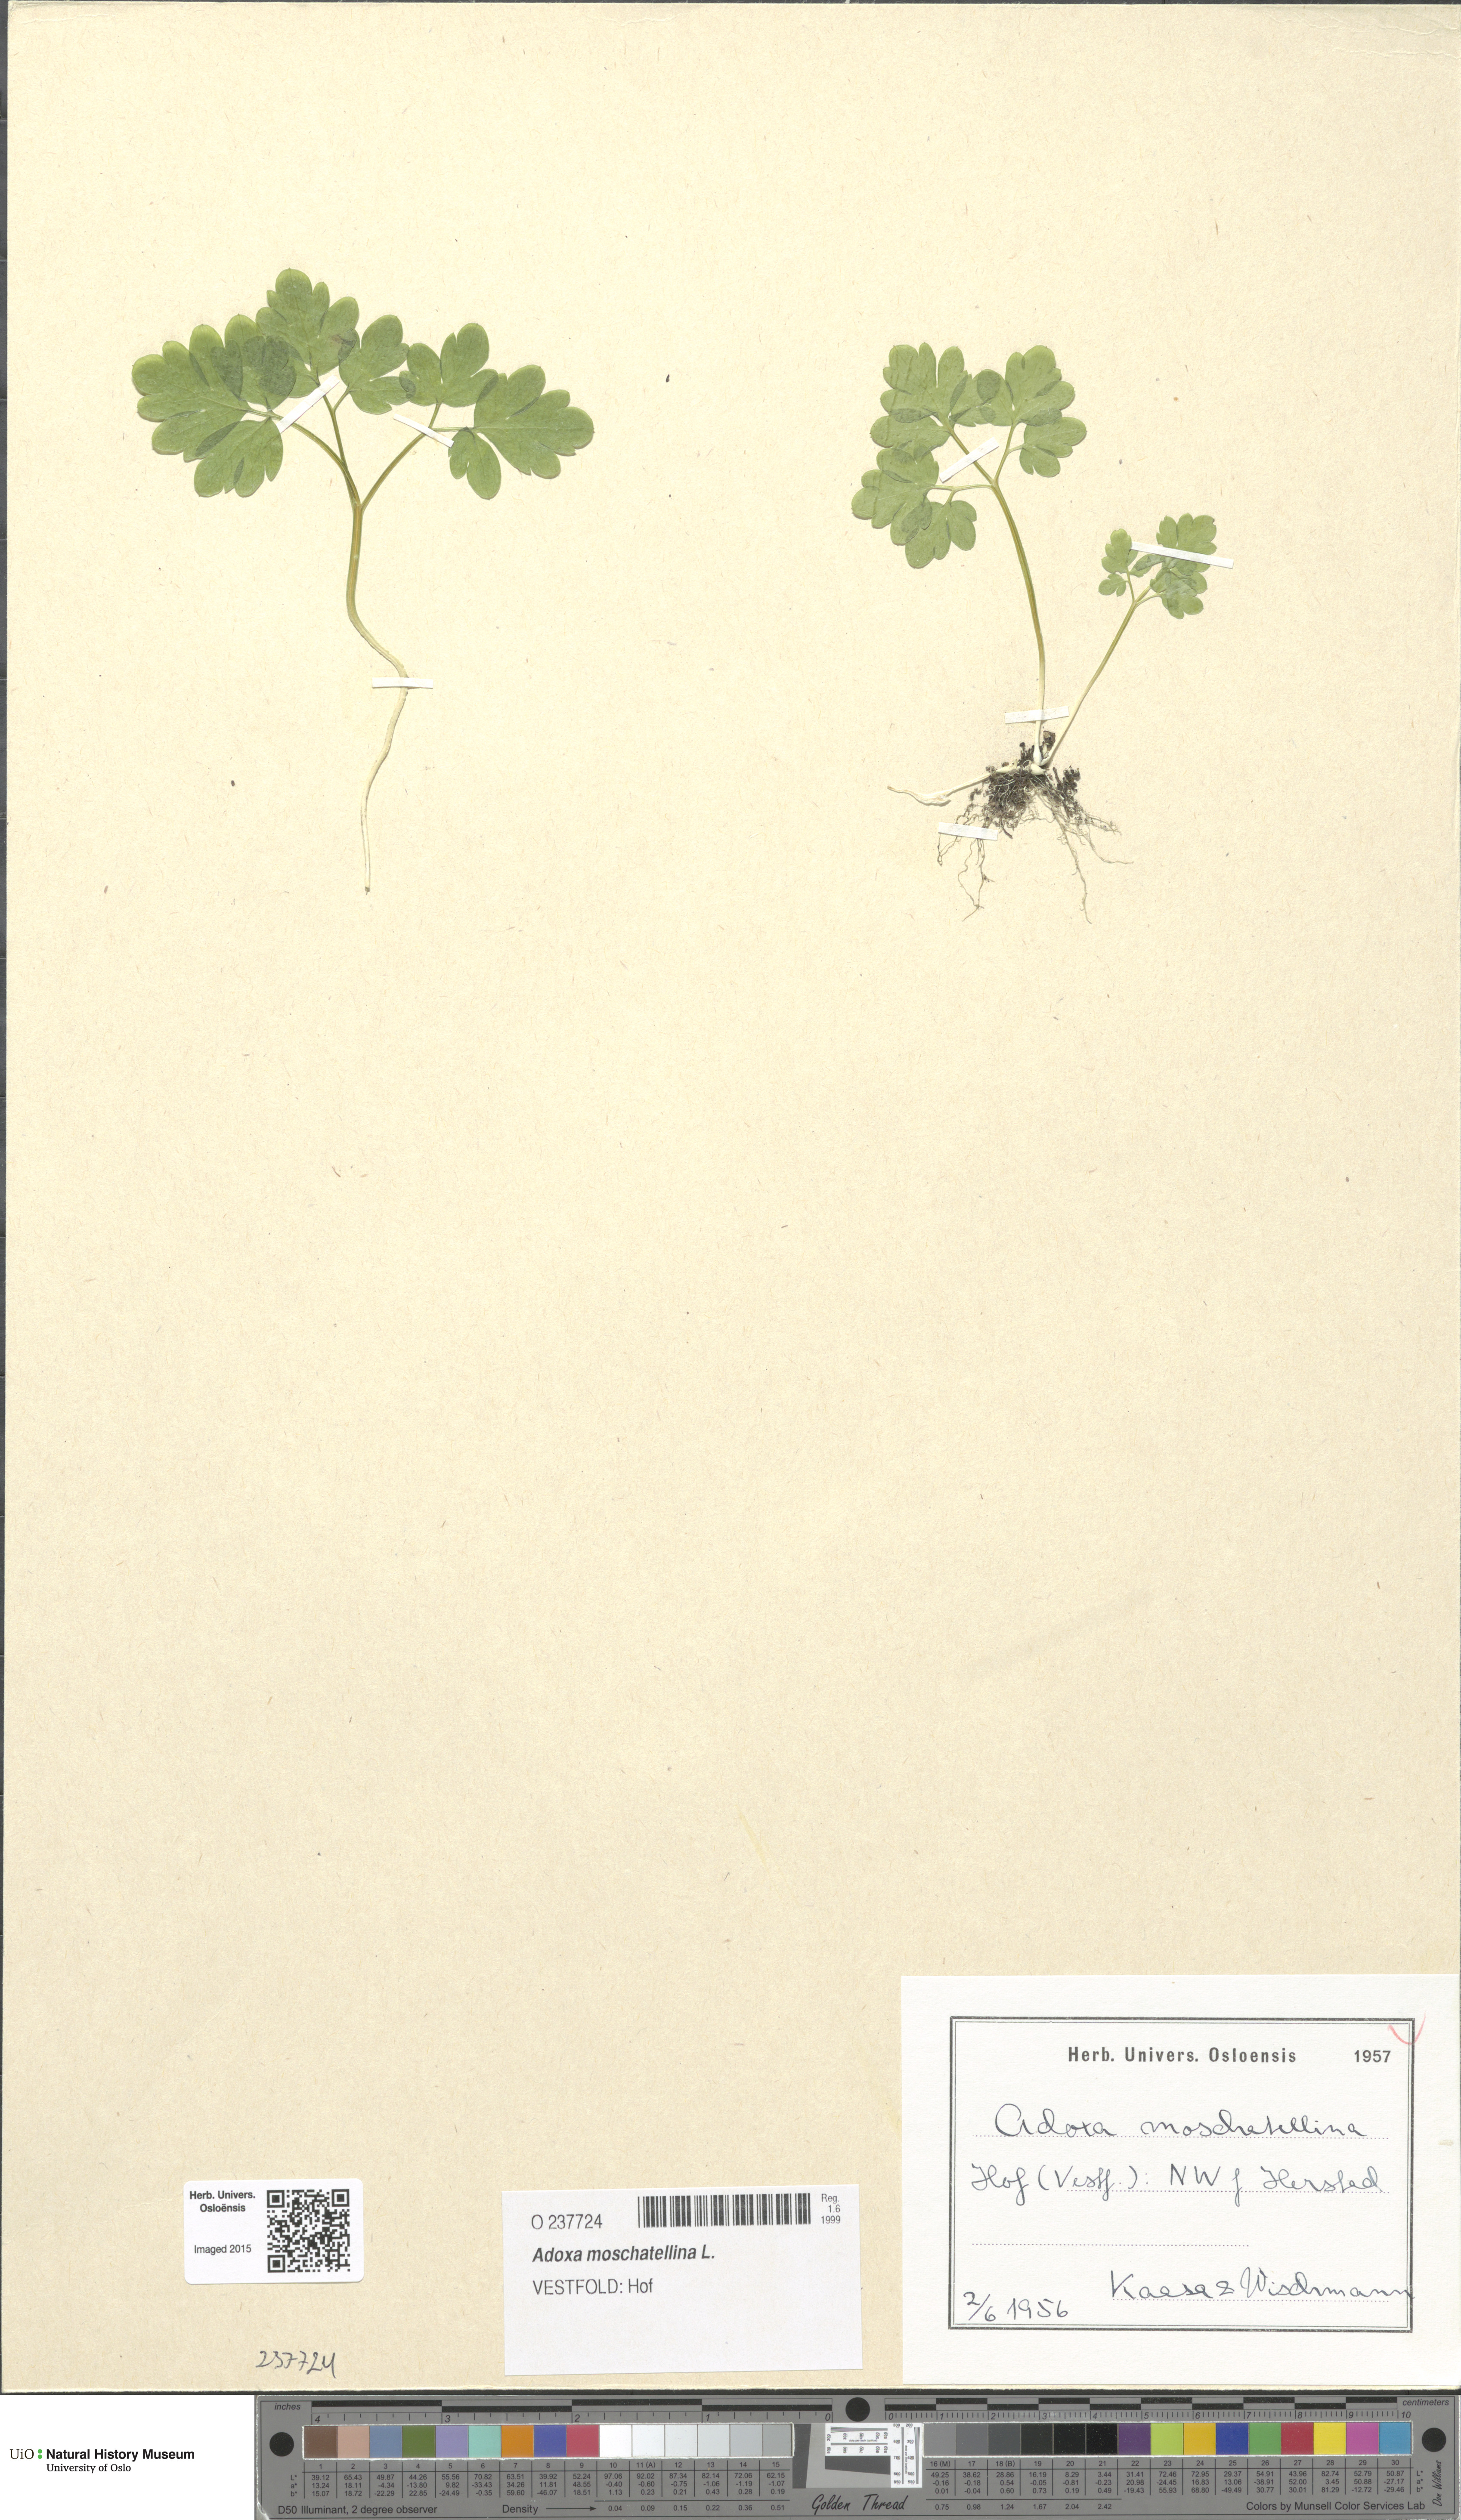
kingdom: Plantae
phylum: Tracheophyta
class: Magnoliopsida
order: Dipsacales
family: Viburnaceae
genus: Adoxa
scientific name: Adoxa moschatellina
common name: Moschatel
